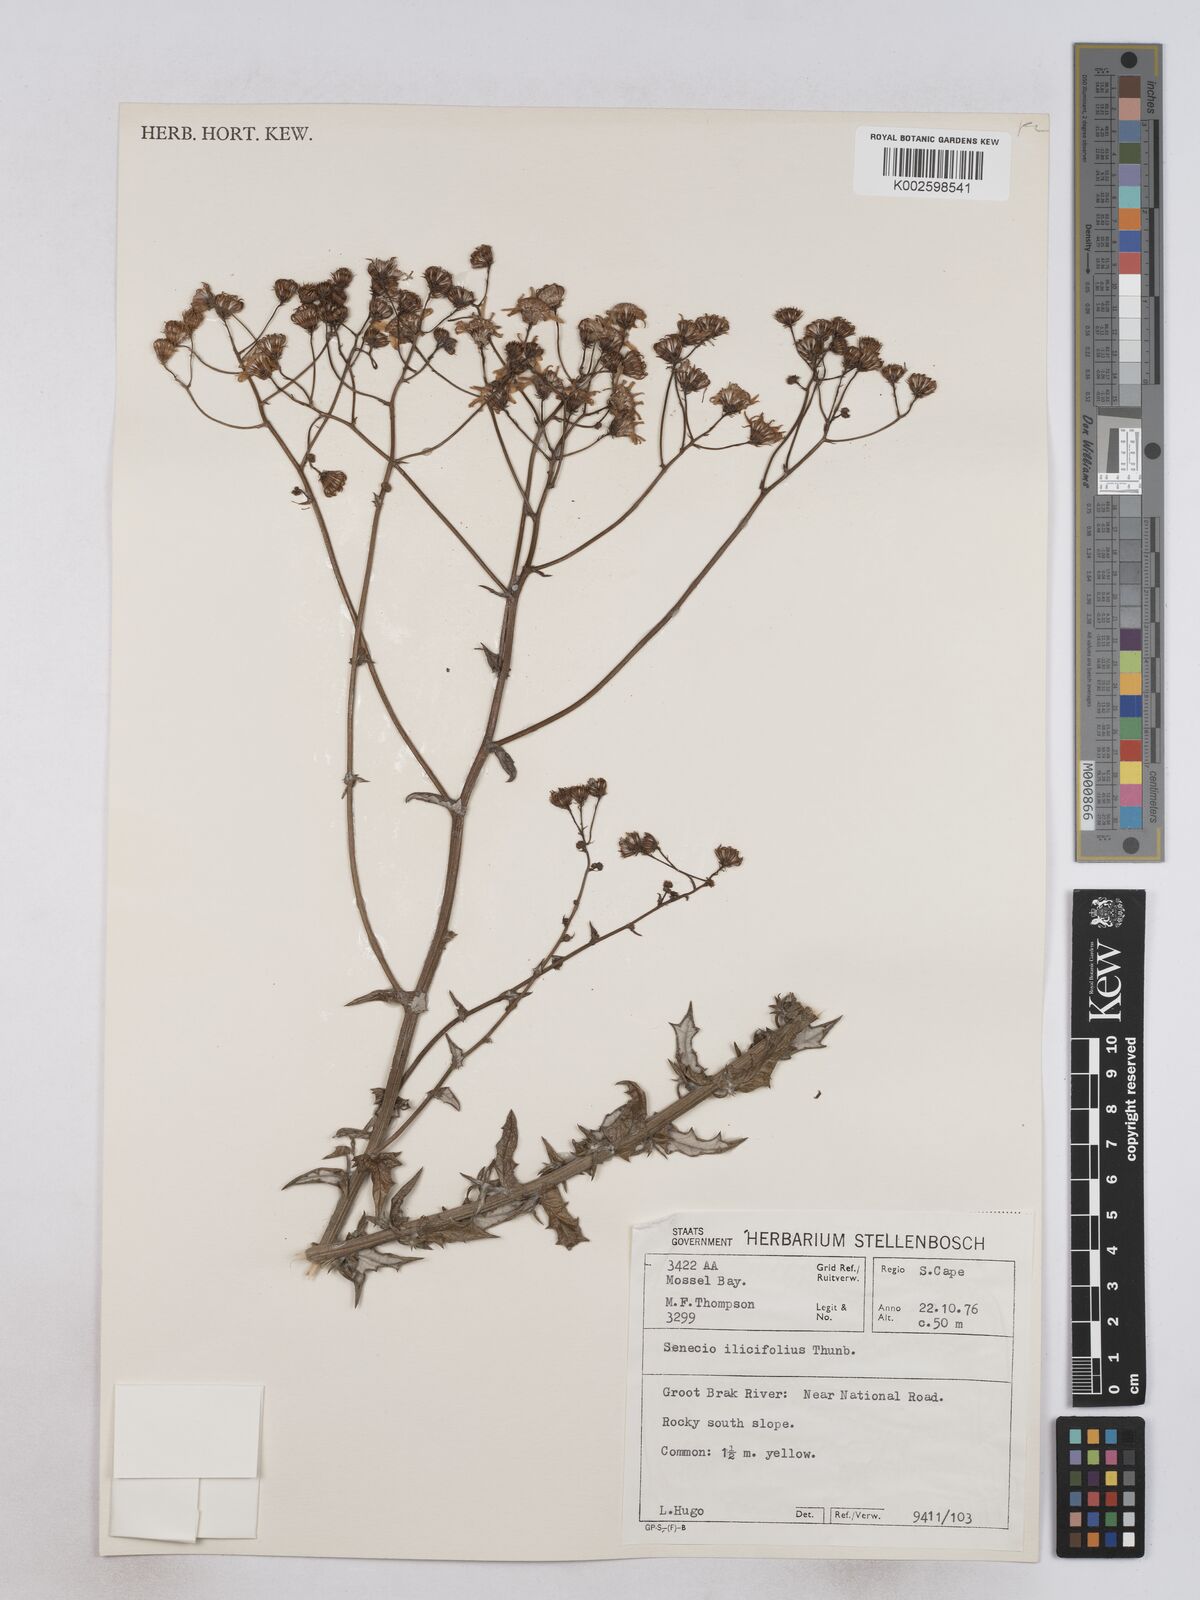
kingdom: Plantae
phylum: Tracheophyta
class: Magnoliopsida
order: Asterales
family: Asteraceae
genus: Senecio
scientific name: Senecio ilicifolius
